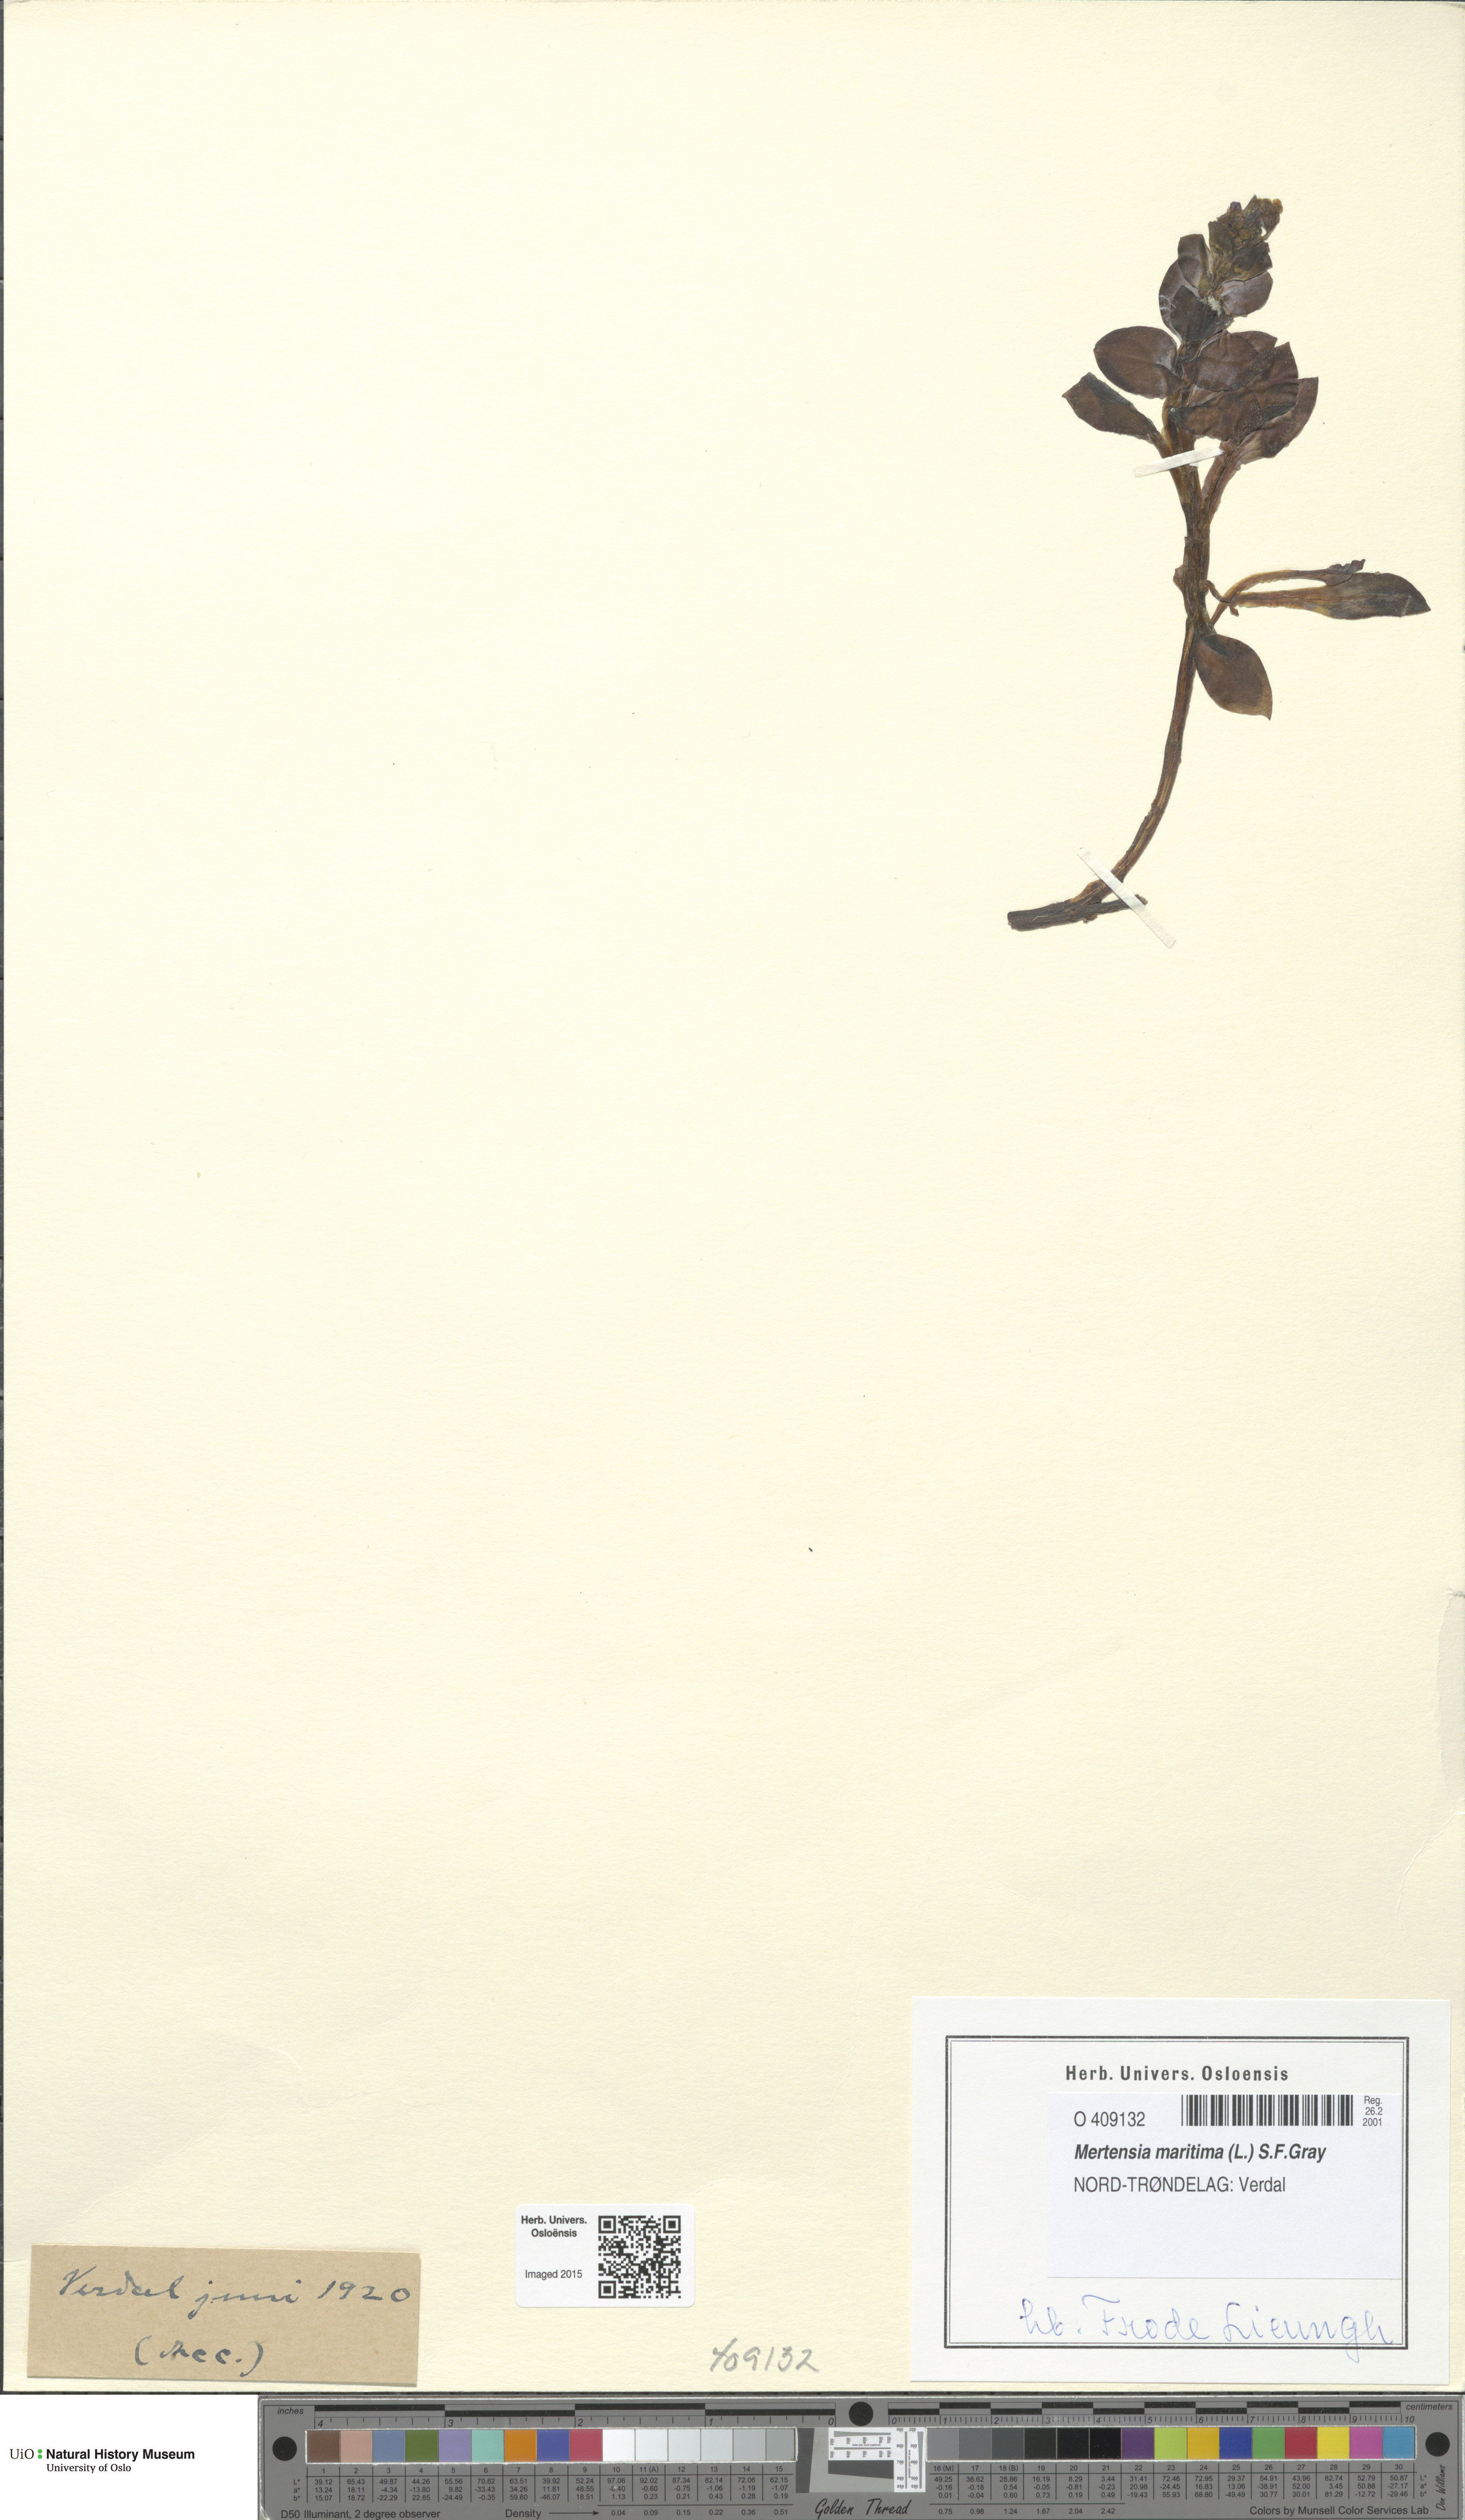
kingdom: Plantae
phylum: Tracheophyta
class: Magnoliopsida
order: Boraginales
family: Boraginaceae
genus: Mertensia
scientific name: Mertensia maritima
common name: Oysterplant
